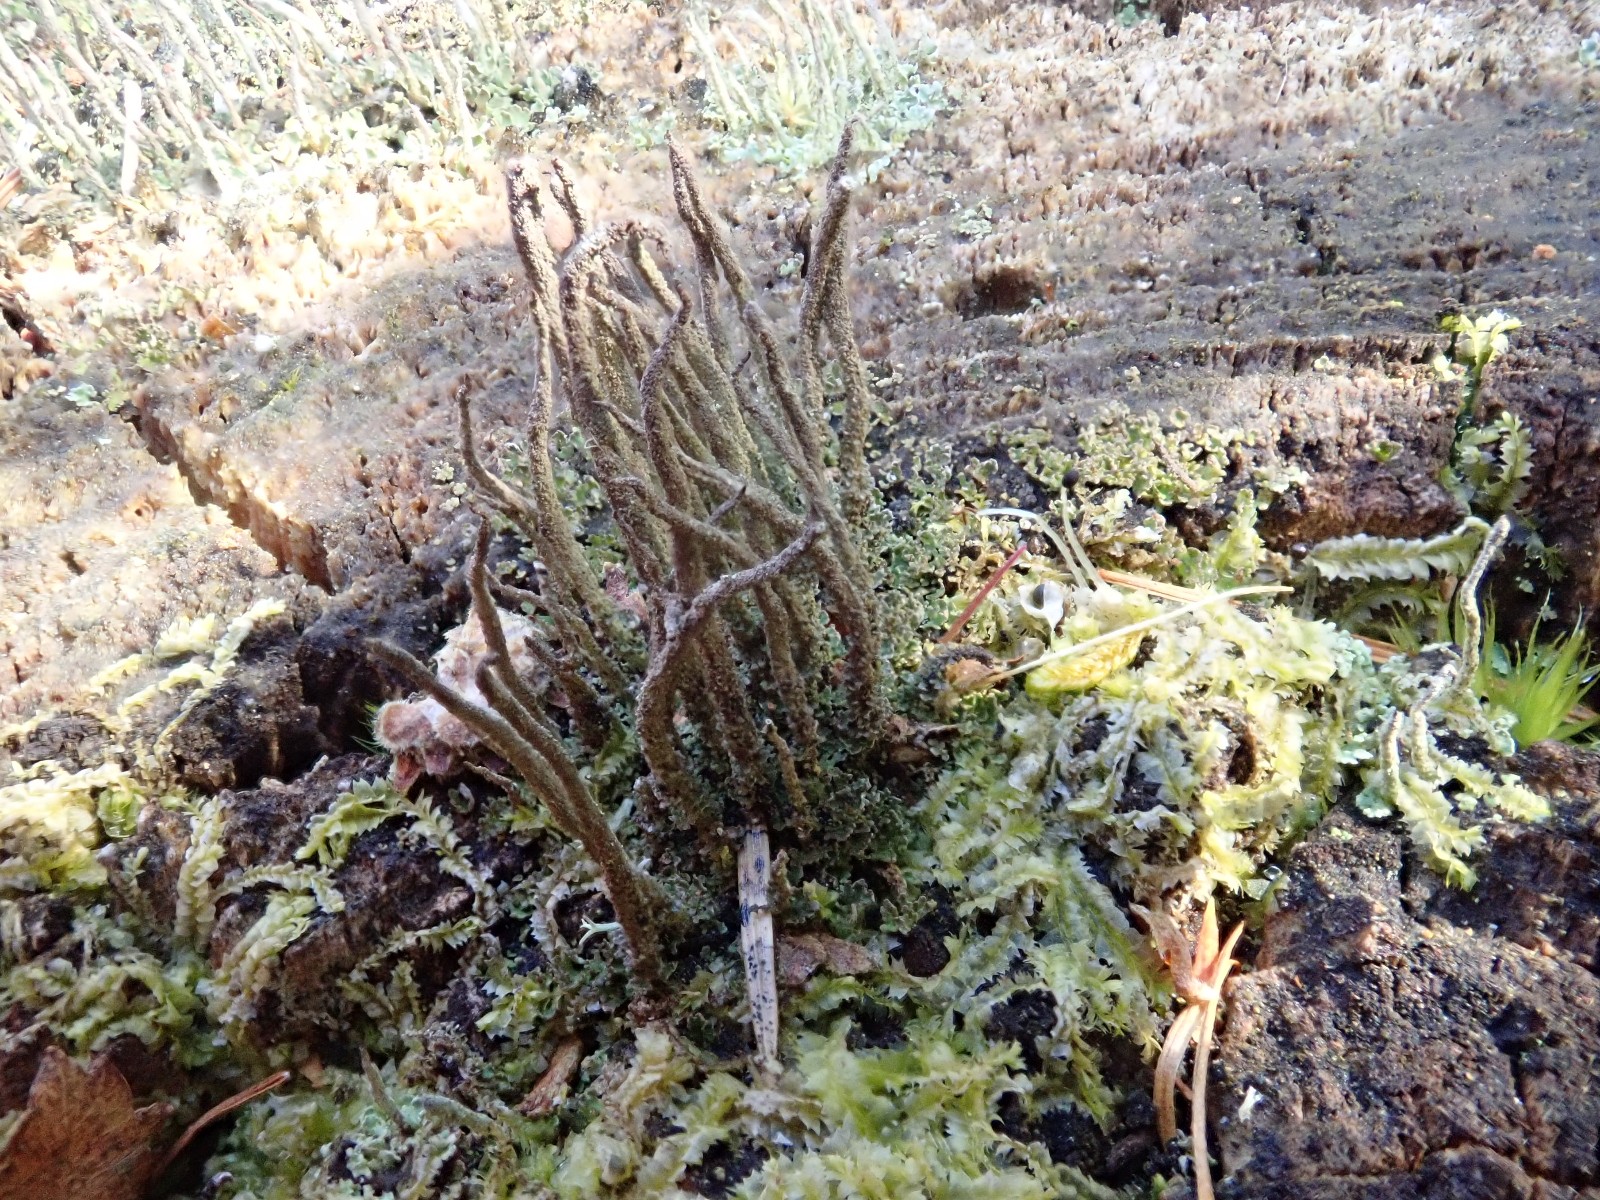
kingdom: Fungi
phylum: Ascomycota
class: Lecanoromycetes
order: Lecanorales
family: Cladoniaceae
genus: Cladonia
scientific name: Cladonia glauca
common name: grågrøn bægerlav
